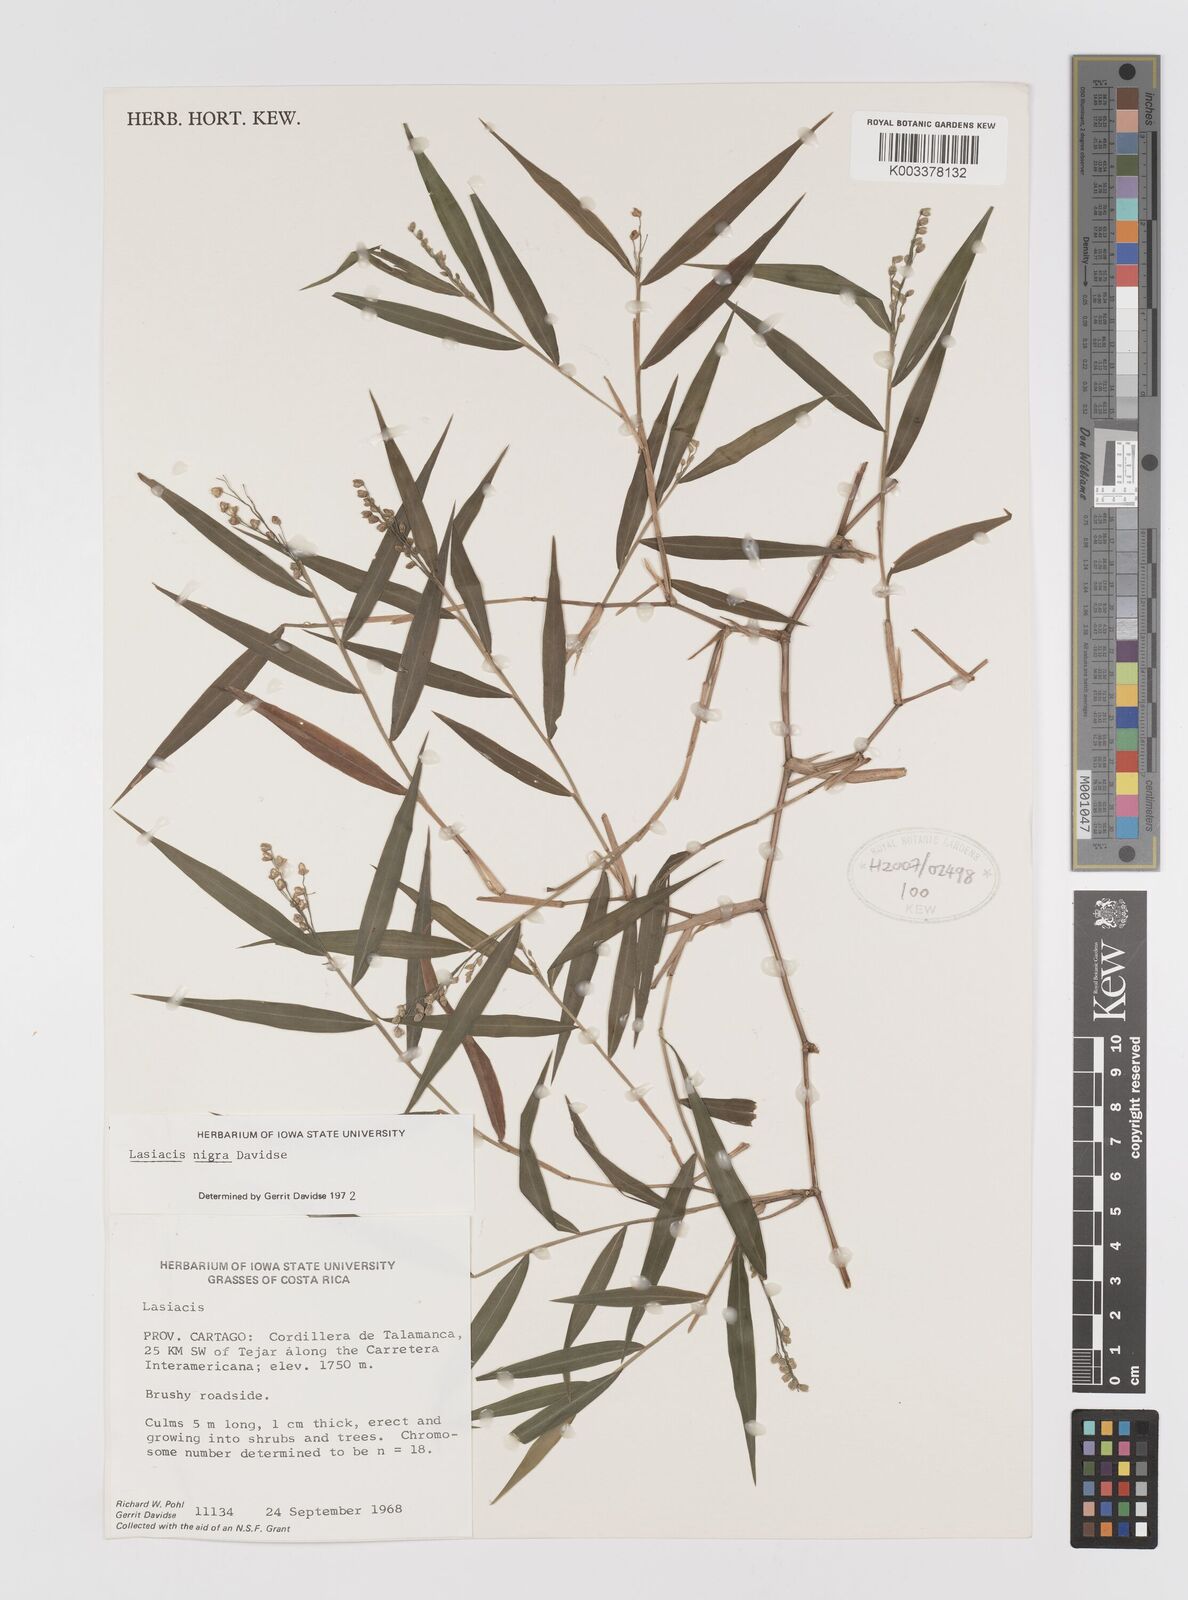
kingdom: Plantae
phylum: Tracheophyta
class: Liliopsida
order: Poales
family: Poaceae
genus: Lasiacis
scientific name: Lasiacis nigra
